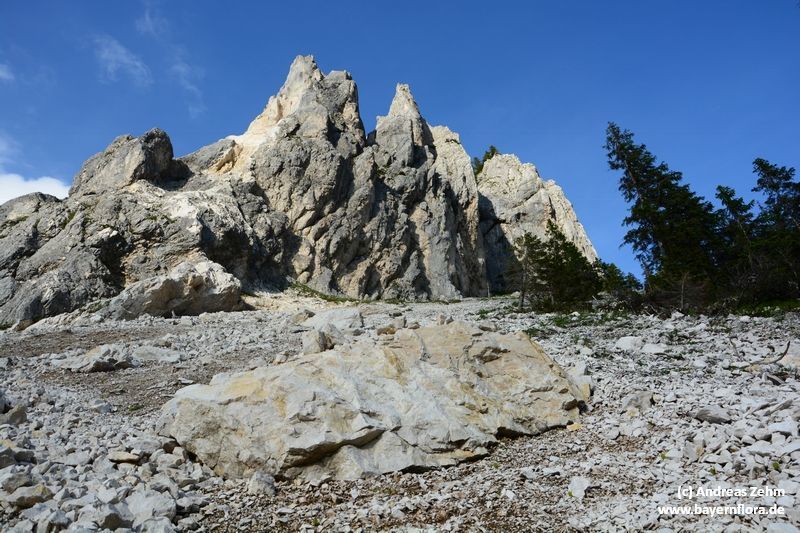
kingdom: Plantae
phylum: Tracheophyta
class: Magnoliopsida
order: Brassicales
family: Brassicaceae
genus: Noccaea
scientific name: Noccaea rotundifolia
